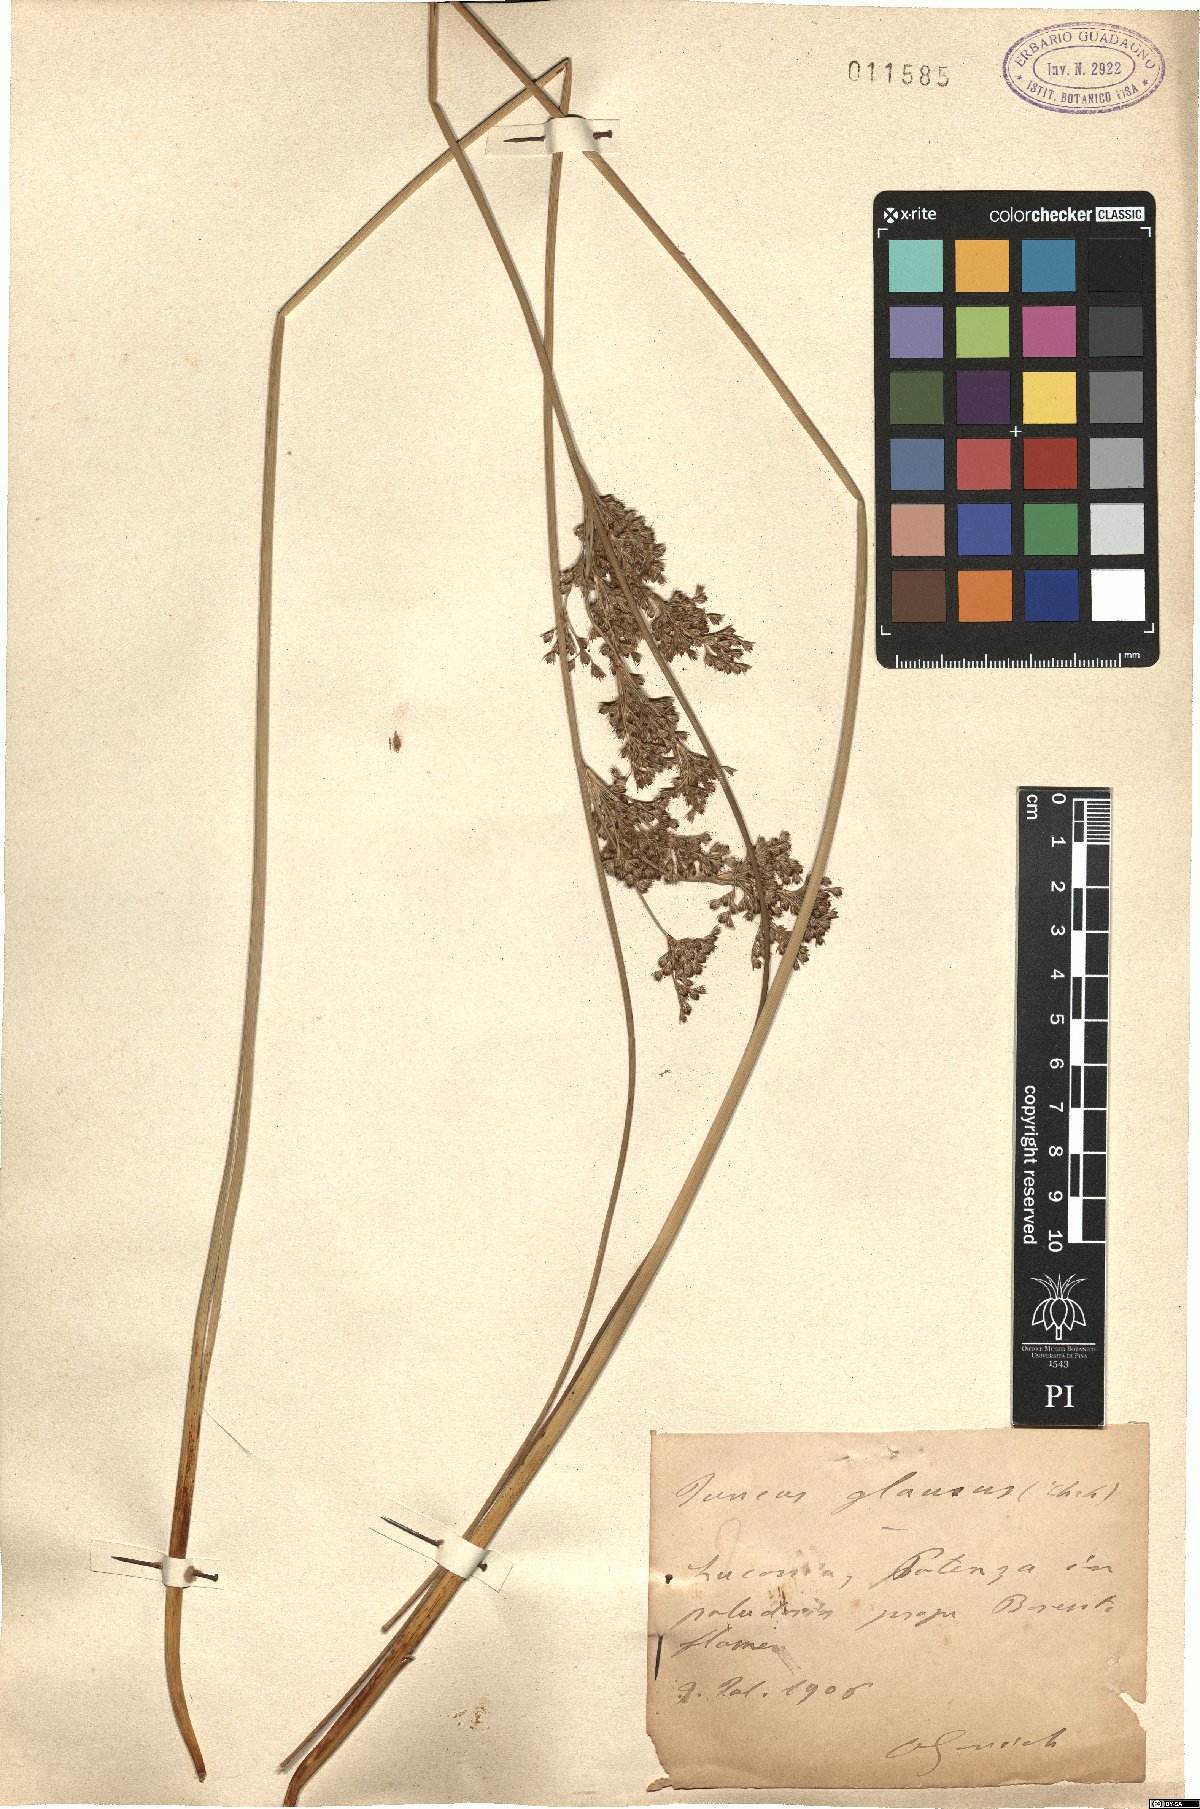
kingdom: Plantae
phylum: Tracheophyta
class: Liliopsida
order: Poales
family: Juncaceae
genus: Juncus
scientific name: Juncus inflexus
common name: Hard rush
